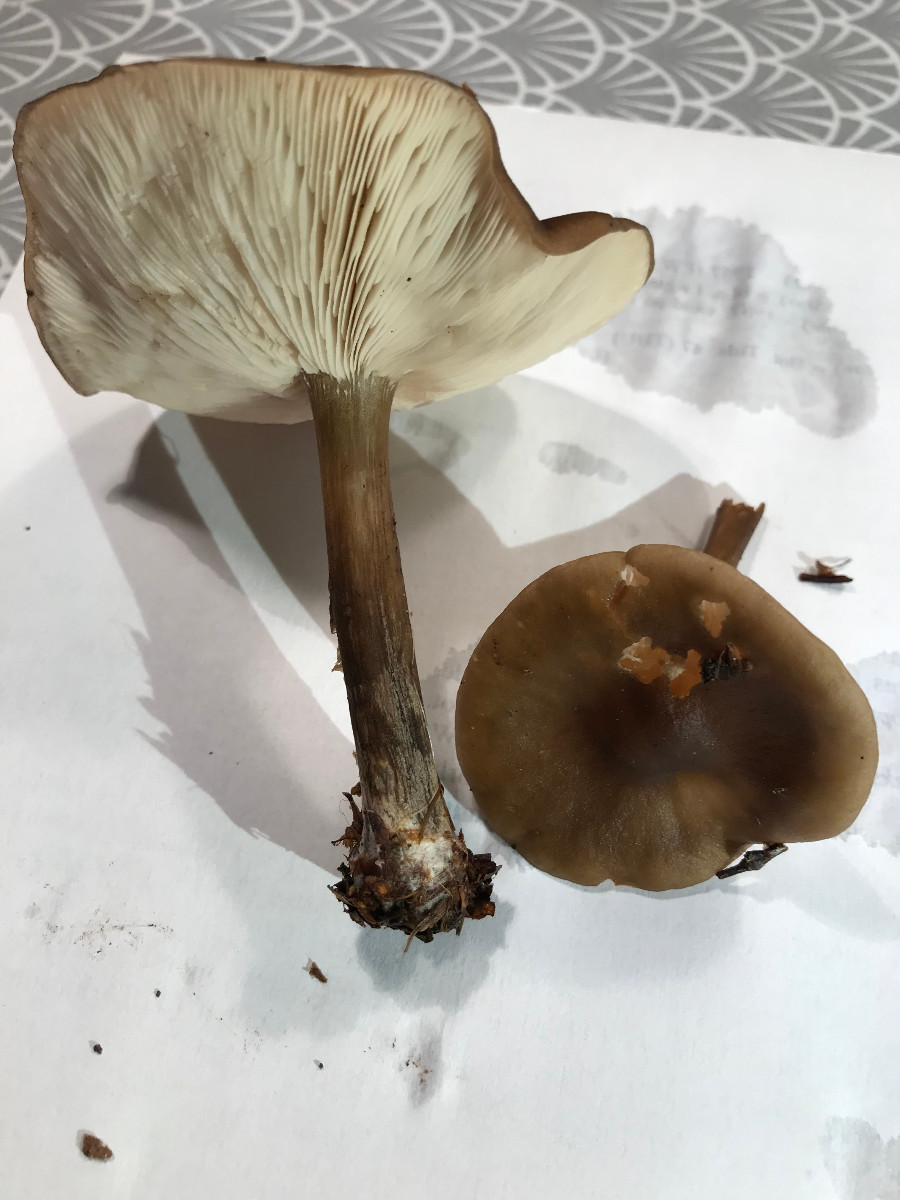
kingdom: Fungi
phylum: Basidiomycota
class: Agaricomycetes
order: Agaricales
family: Tricholomataceae
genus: Melanoleuca
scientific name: Melanoleuca
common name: munkehat
